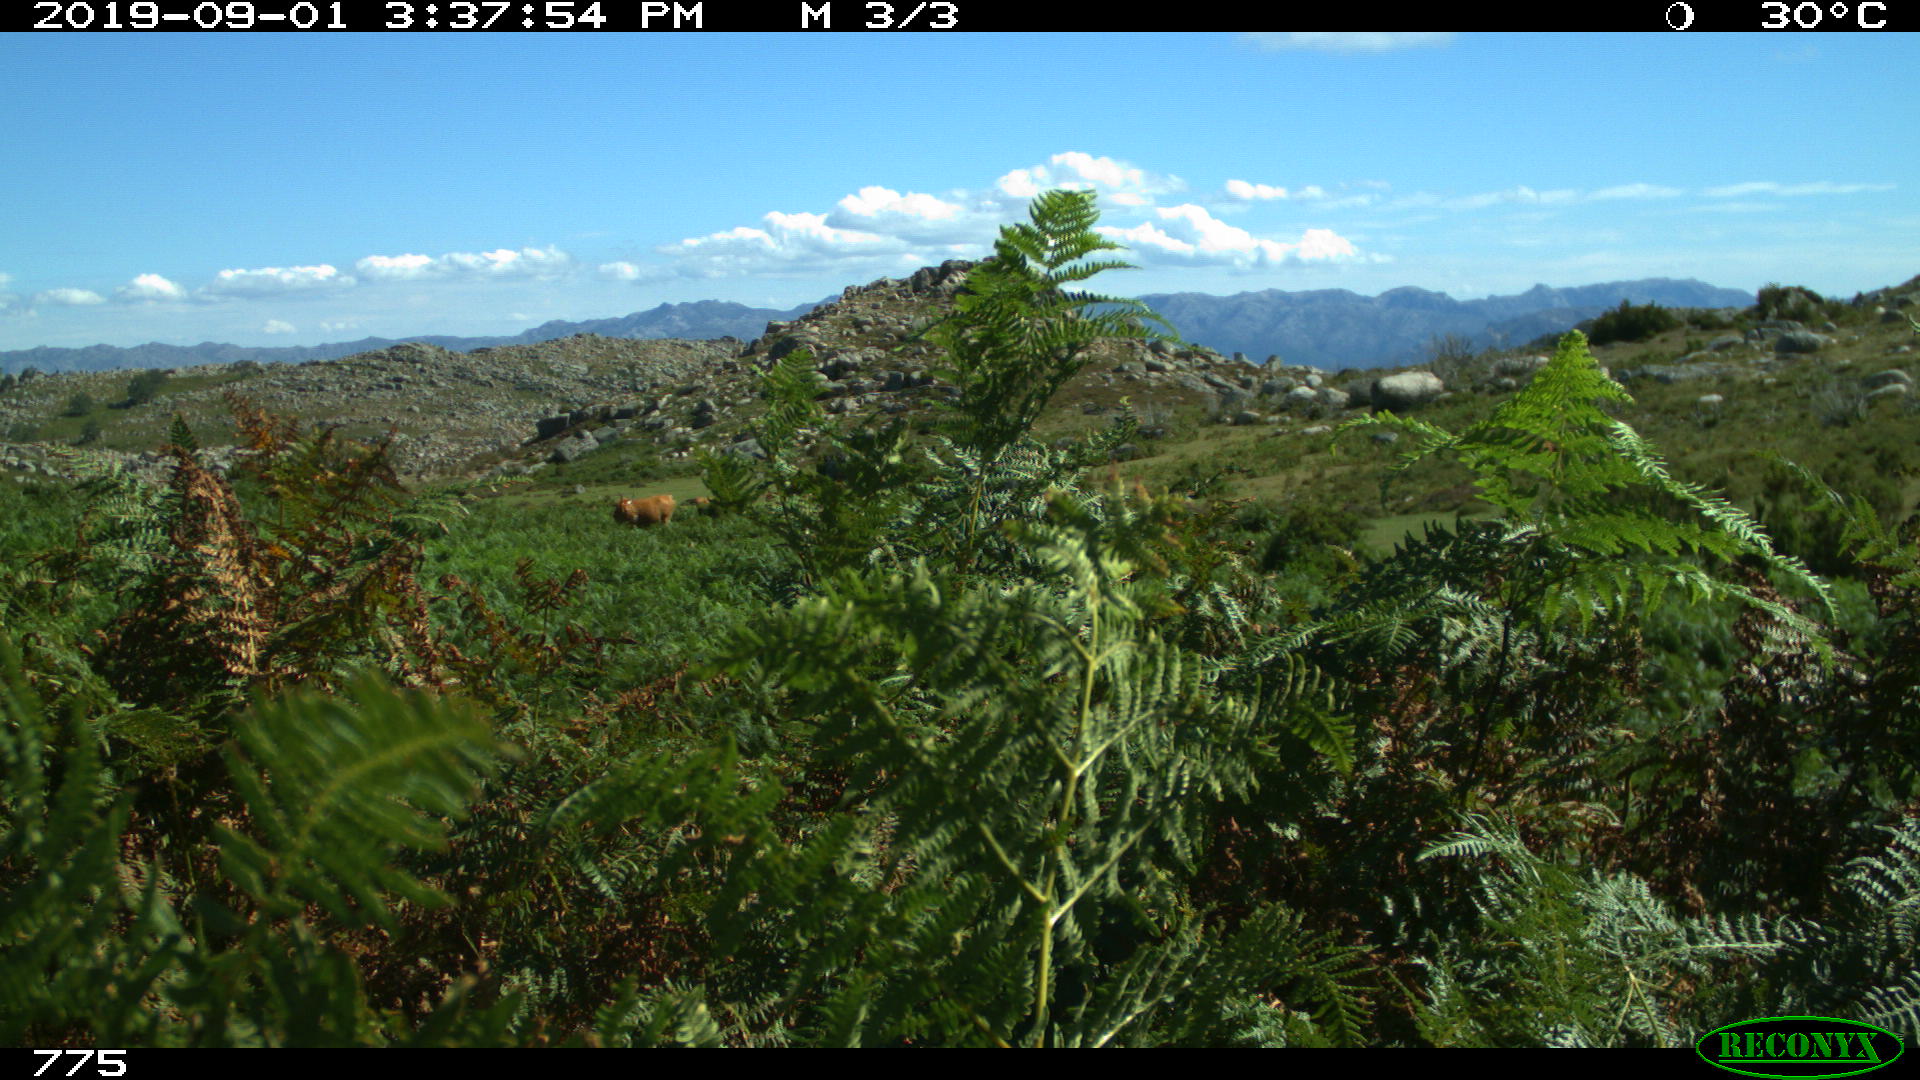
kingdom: Animalia
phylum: Chordata
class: Mammalia
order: Artiodactyla
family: Bovidae
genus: Bos
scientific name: Bos taurus
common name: Domesticated cattle
